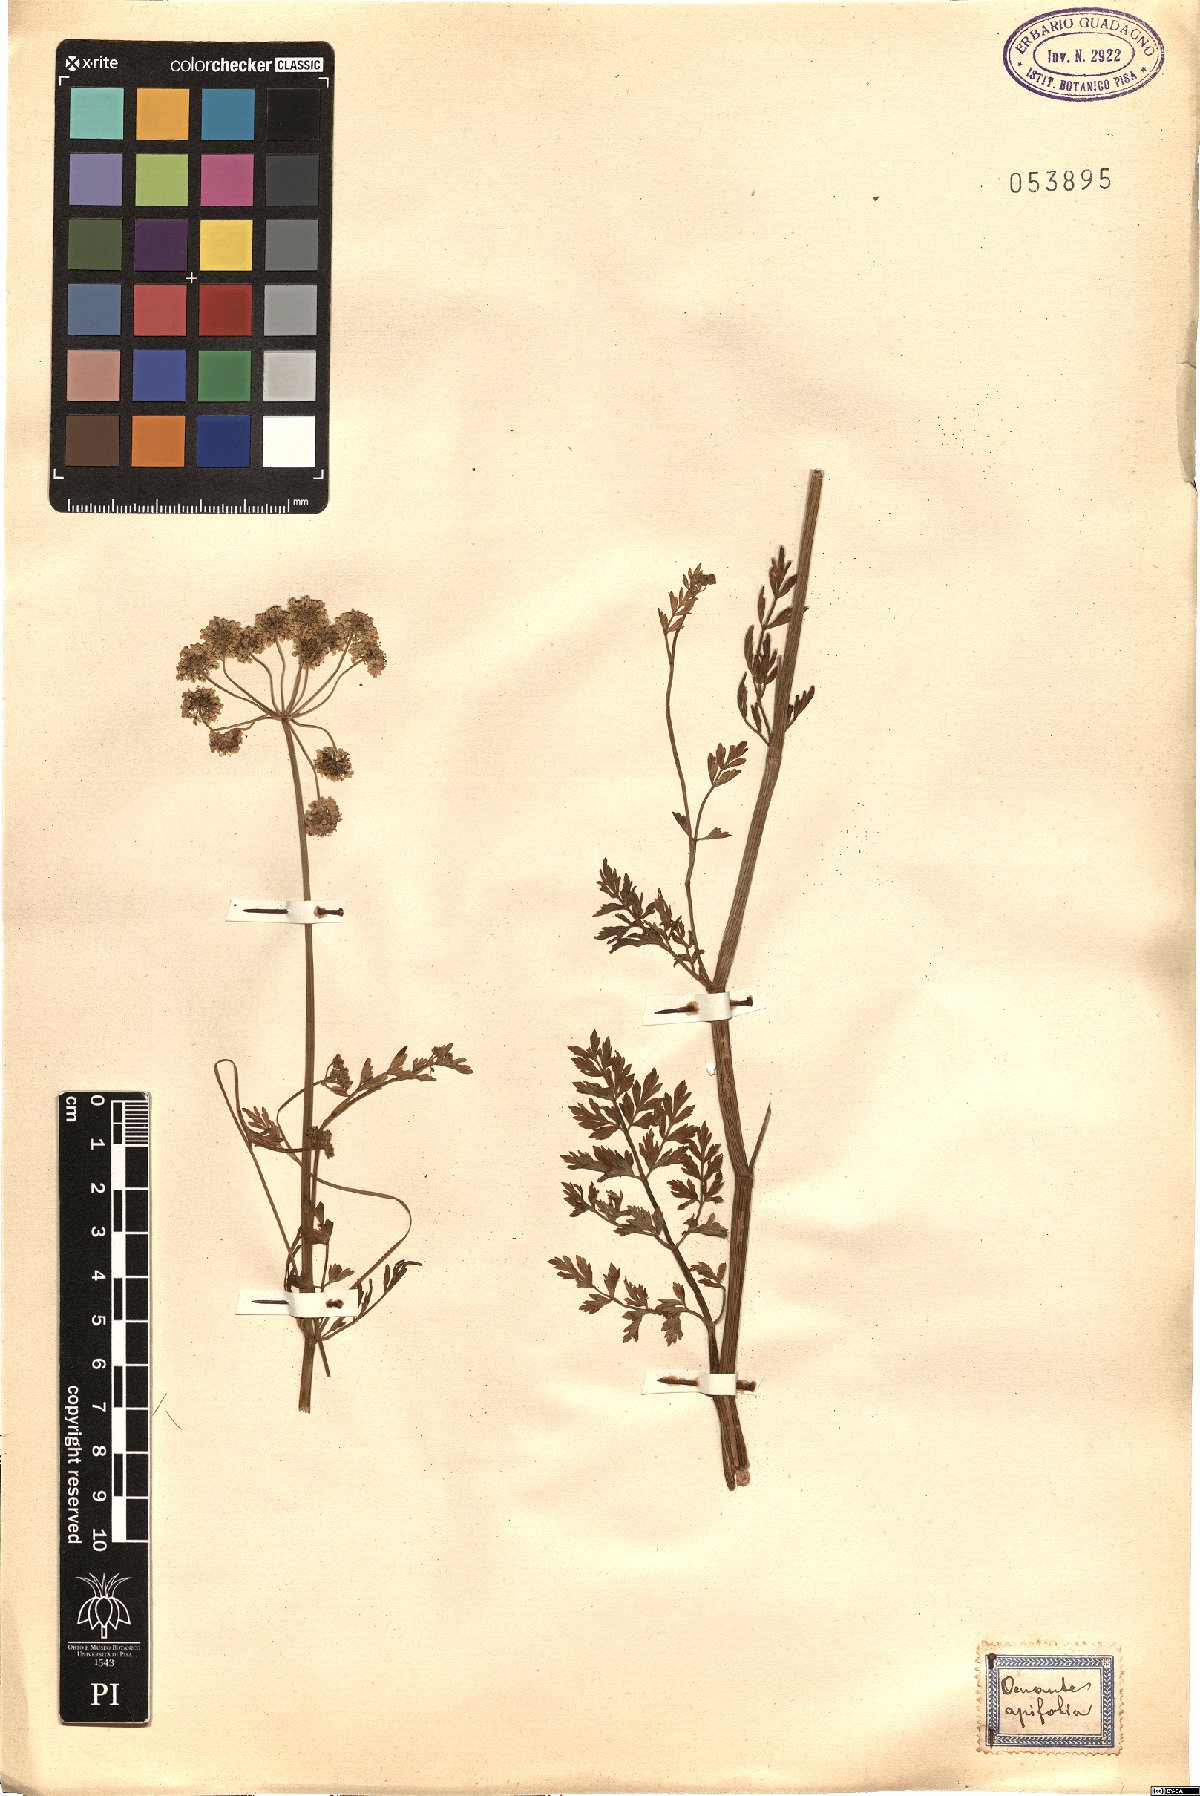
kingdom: Plantae
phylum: Tracheophyta
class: Magnoliopsida
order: Apiales
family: Apiaceae
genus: Oenanthe
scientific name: Oenanthe crocata
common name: Hemlock water-dropwort
